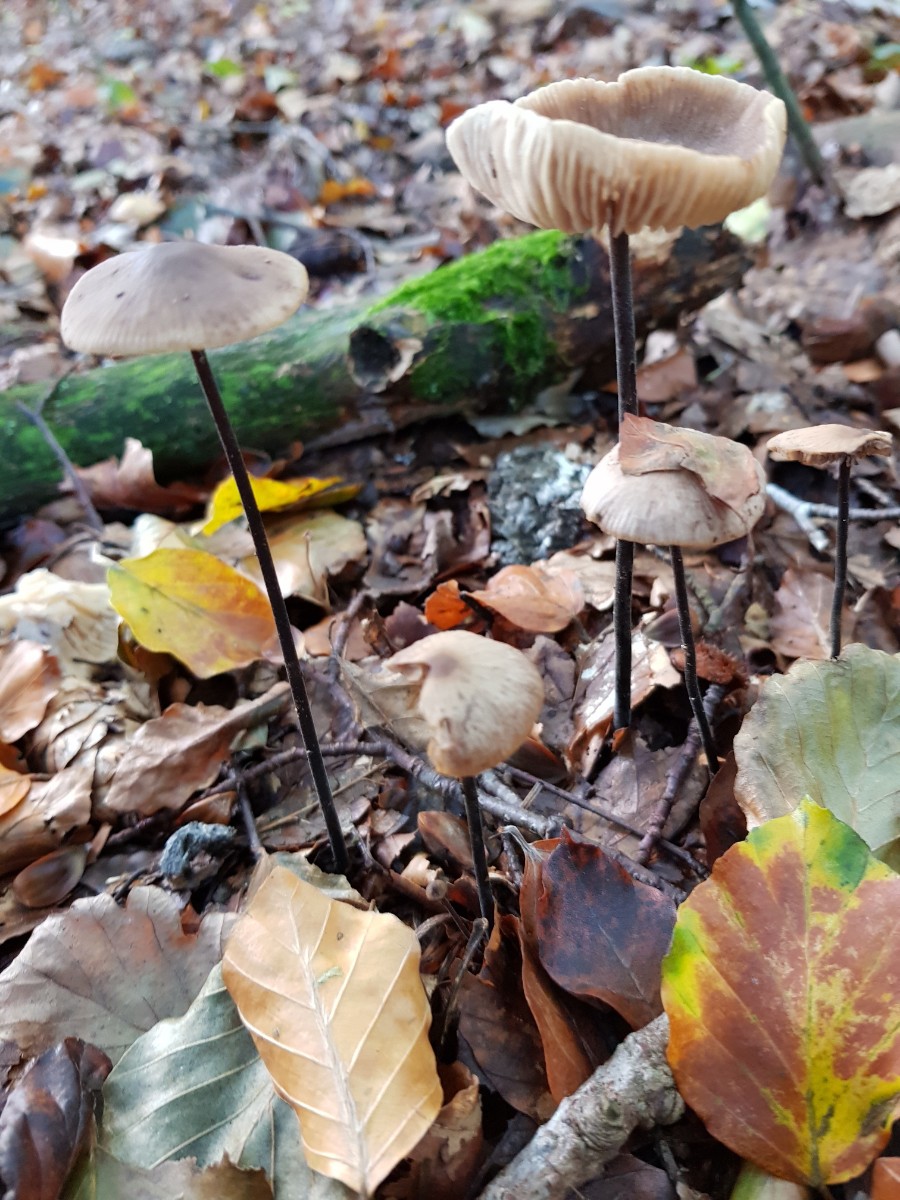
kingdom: Fungi
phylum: Basidiomycota
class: Agaricomycetes
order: Agaricales
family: Omphalotaceae
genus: Mycetinis
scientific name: Mycetinis alliaceus
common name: stor løghat
